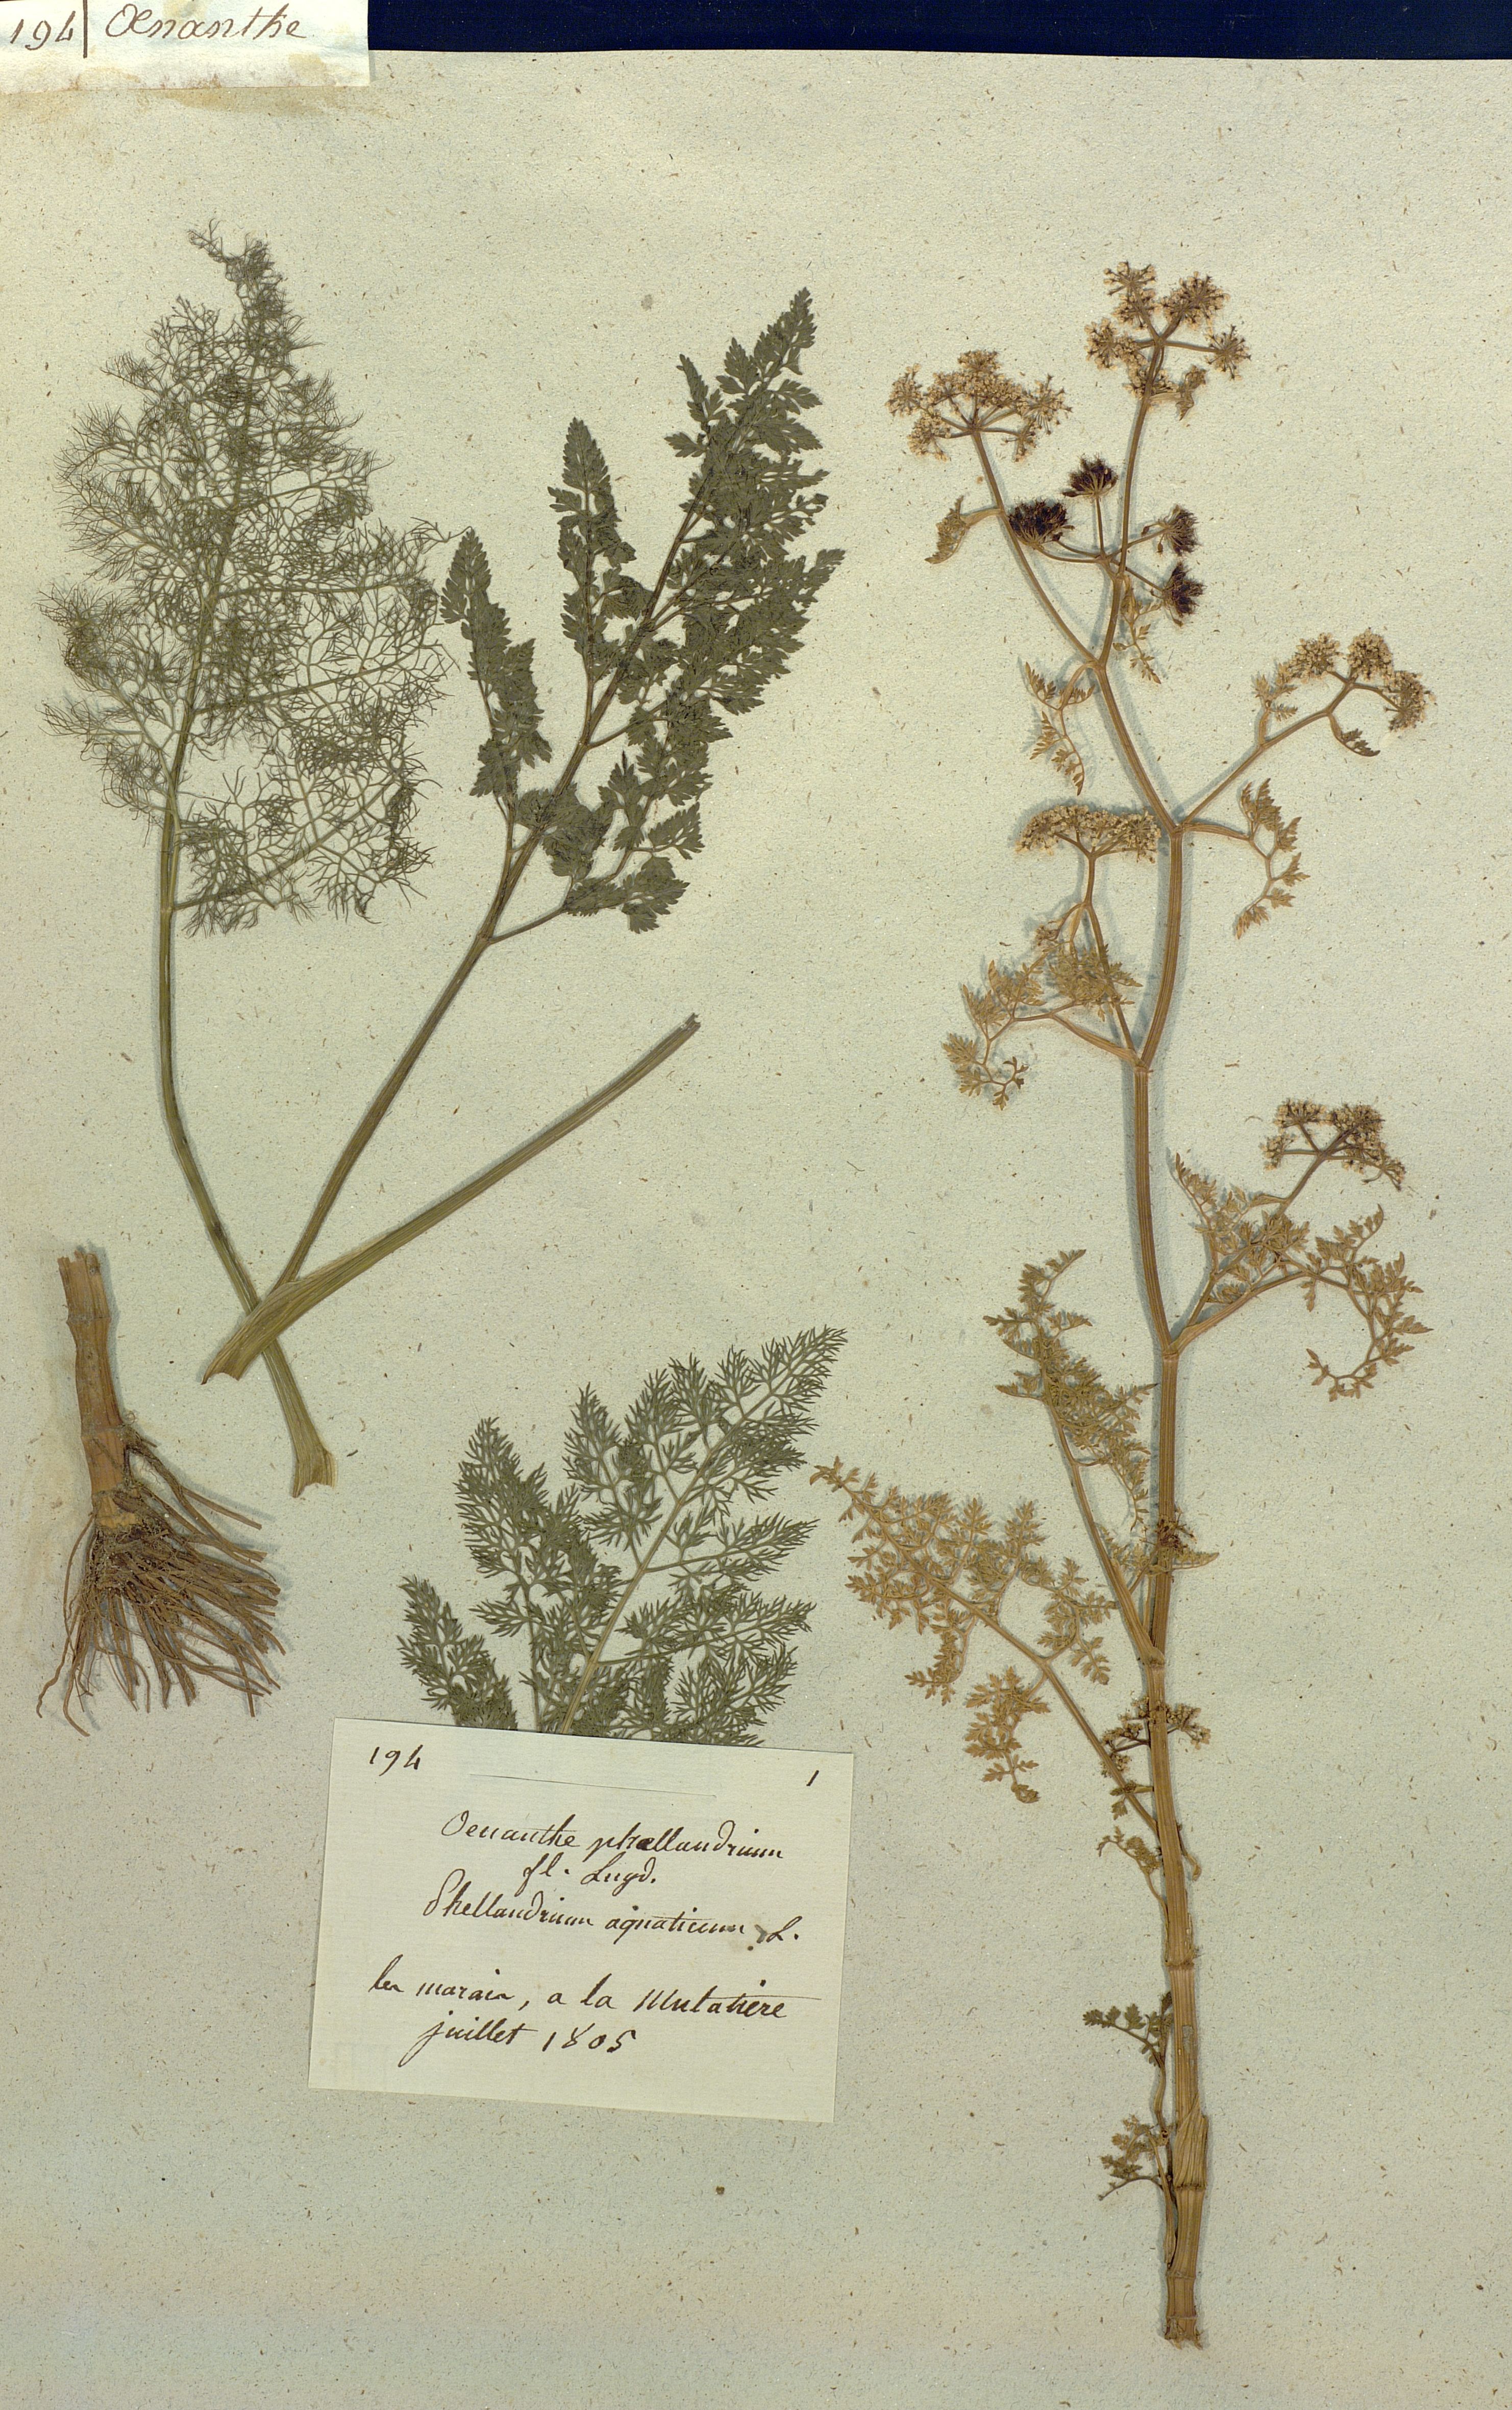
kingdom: Plantae
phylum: Tracheophyta
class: Magnoliopsida
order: Apiales
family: Apiaceae
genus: Oenanthe
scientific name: Oenanthe
